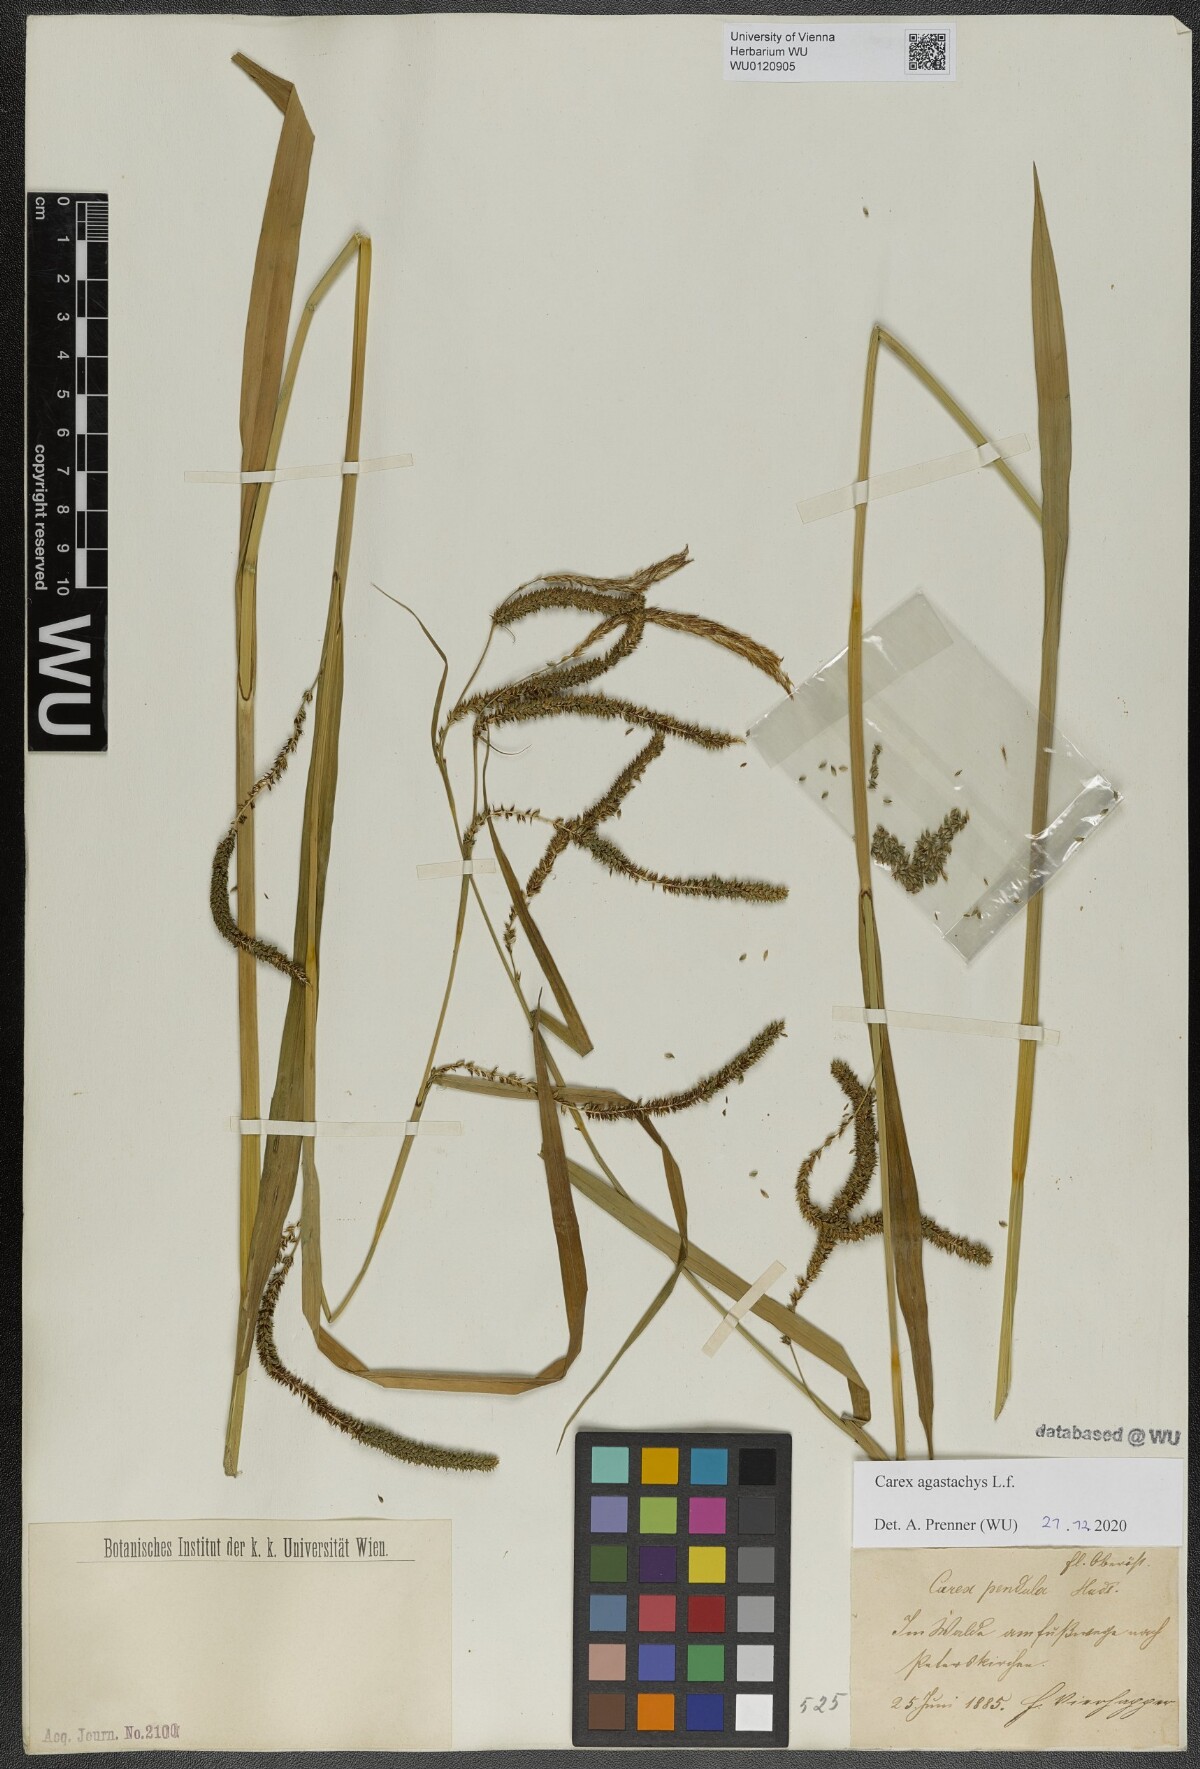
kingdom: Plantae
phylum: Tracheophyta
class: Liliopsida
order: Poales
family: Cyperaceae
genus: Carex
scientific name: Carex agastachys
